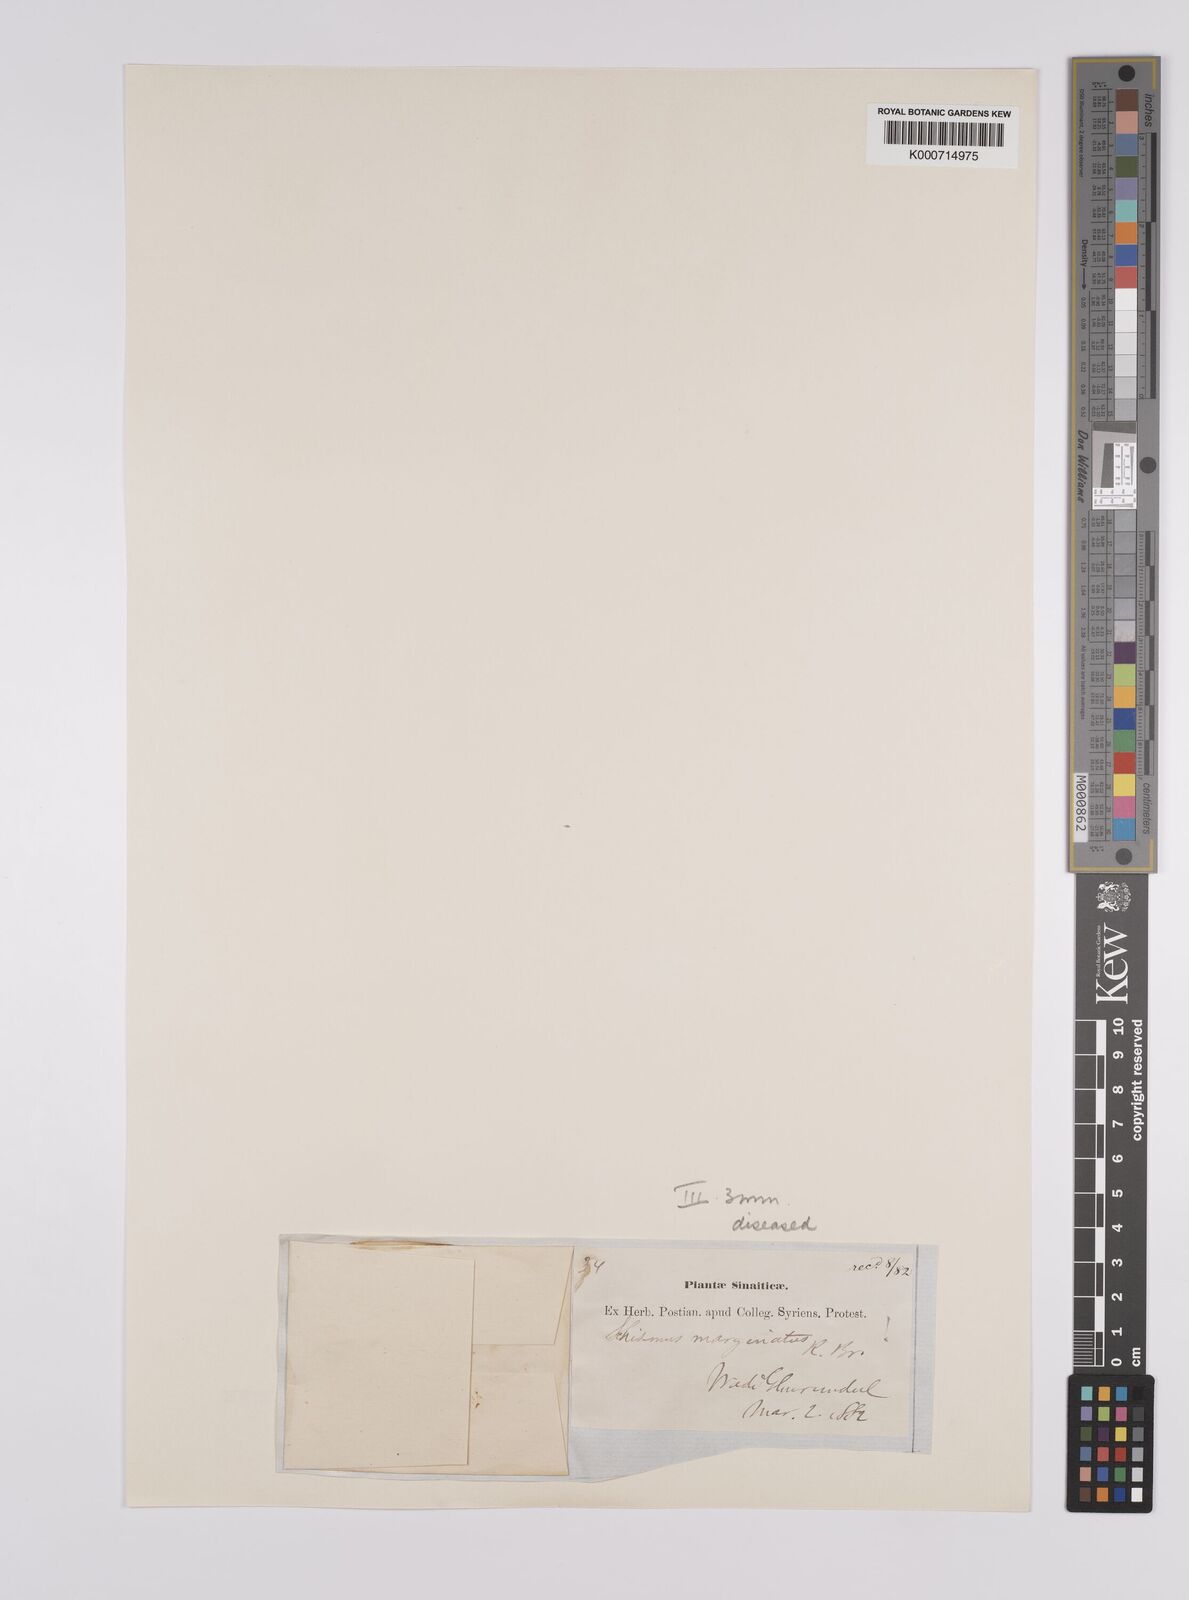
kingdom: Plantae
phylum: Tracheophyta
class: Liliopsida
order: Poales
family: Poaceae
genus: Schismus
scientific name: Schismus arabicus
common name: Arabian schismus
